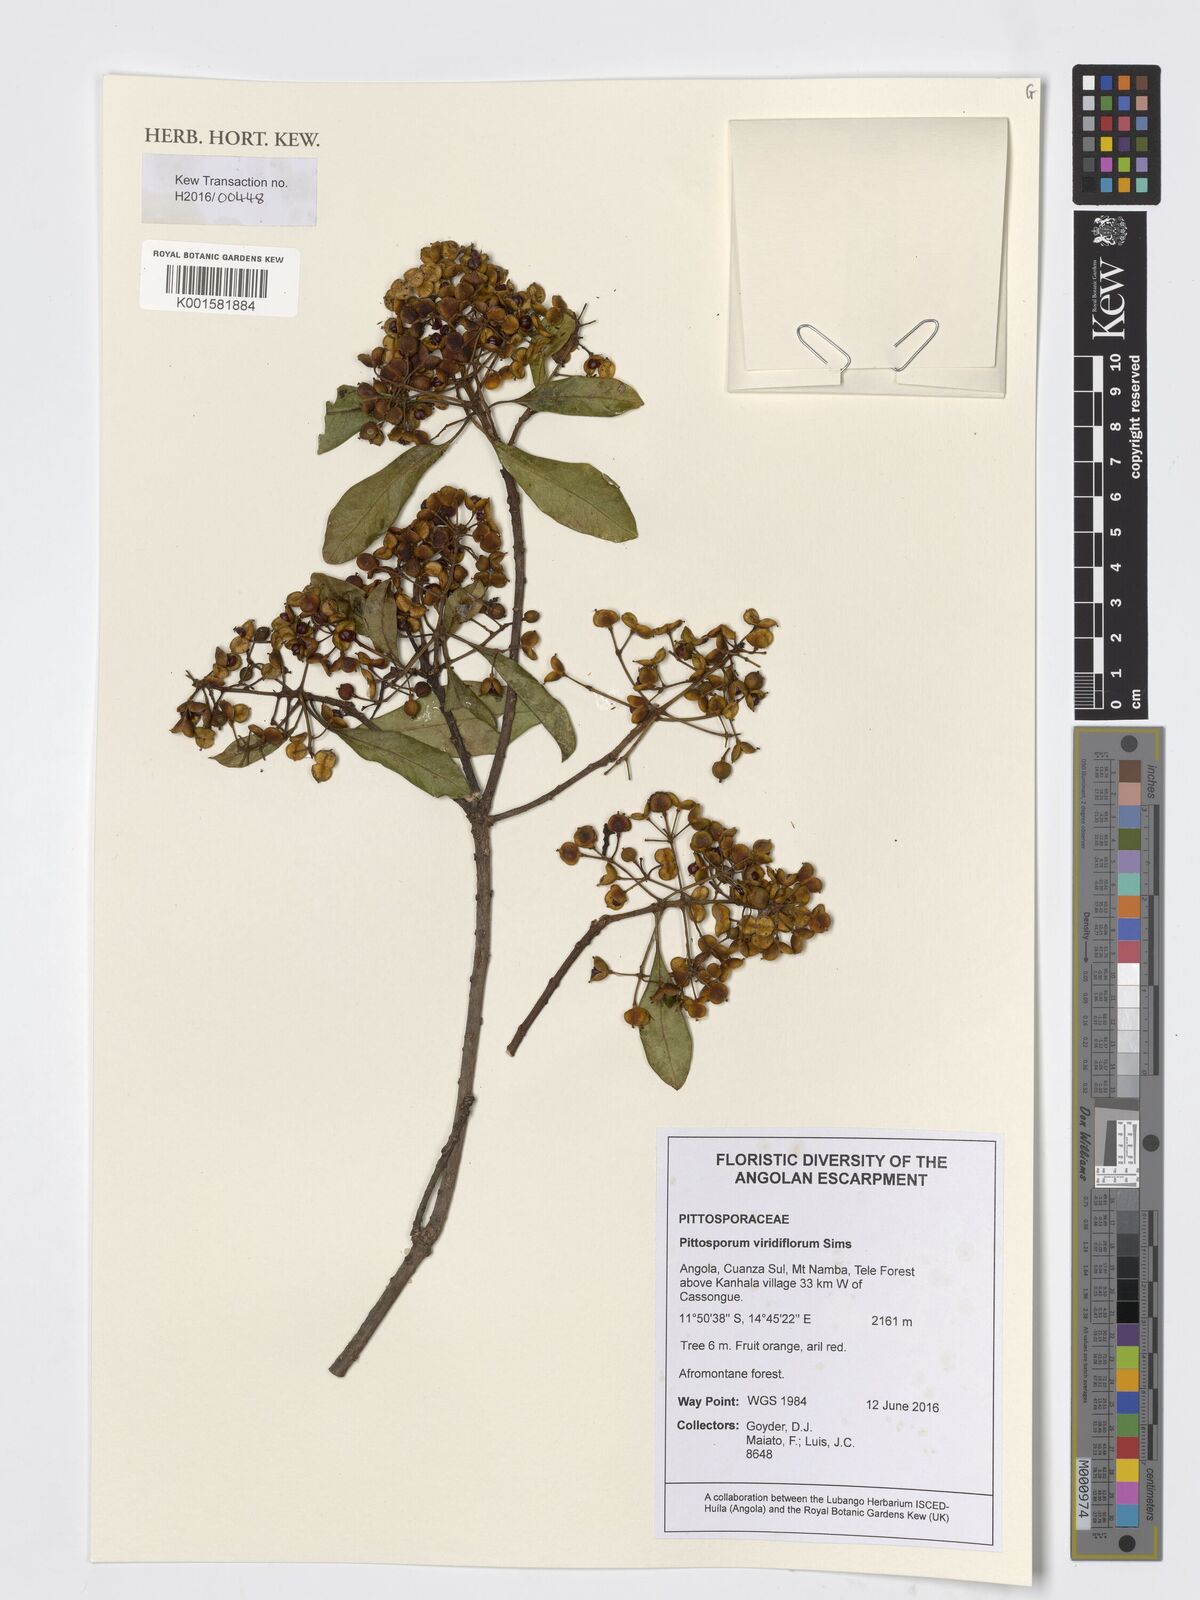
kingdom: Plantae
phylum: Tracheophyta
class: Magnoliopsida
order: Apiales
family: Pittosporaceae
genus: Pittosporum
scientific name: Pittosporum viridiflorum
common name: Cape cheesewood
